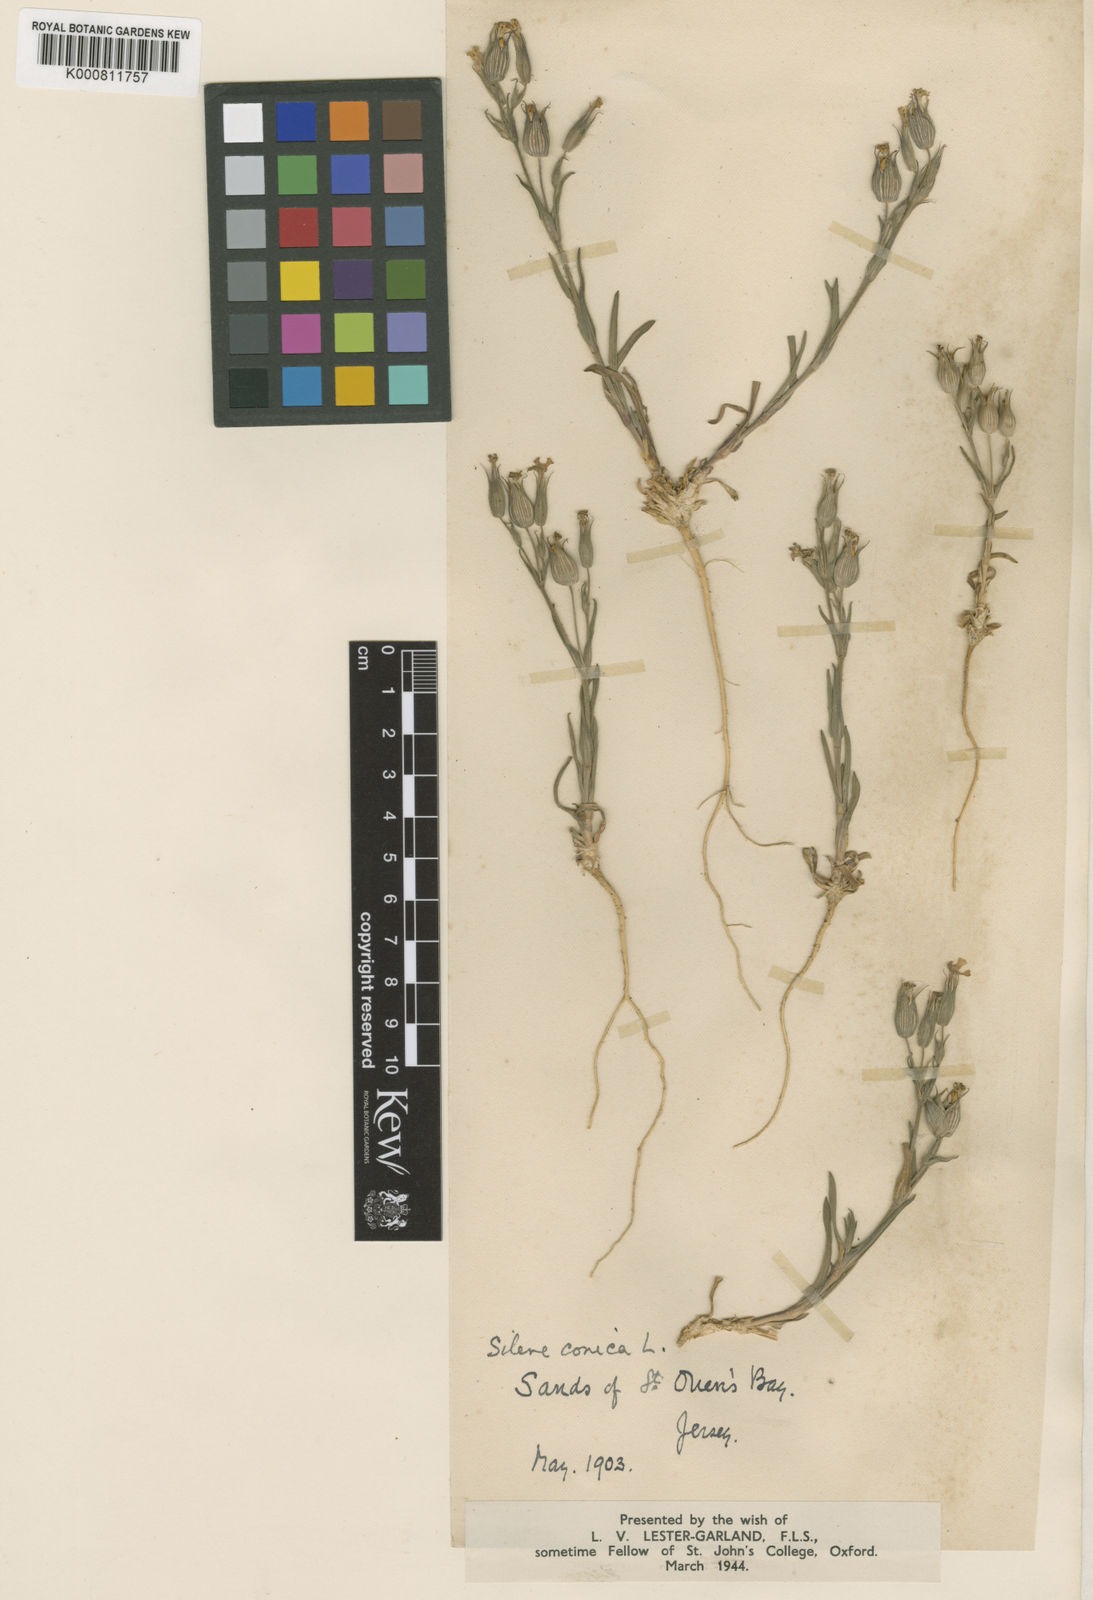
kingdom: Plantae
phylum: Tracheophyta
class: Magnoliopsida
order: Caryophyllales
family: Caryophyllaceae
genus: Silene
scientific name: Silene conica
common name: Sand catchfly
